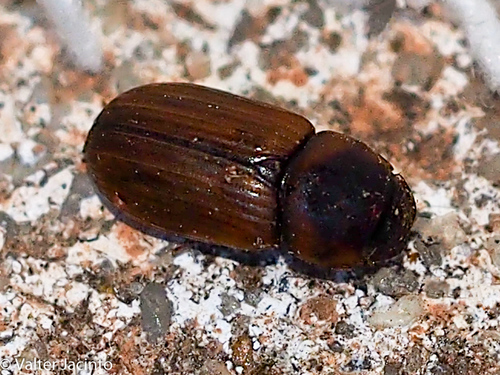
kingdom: Animalia
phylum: Arthropoda
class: Insecta
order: Coleoptera
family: Scarabaeidae
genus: Alocoderus
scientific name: Alocoderus hydrochaeris
